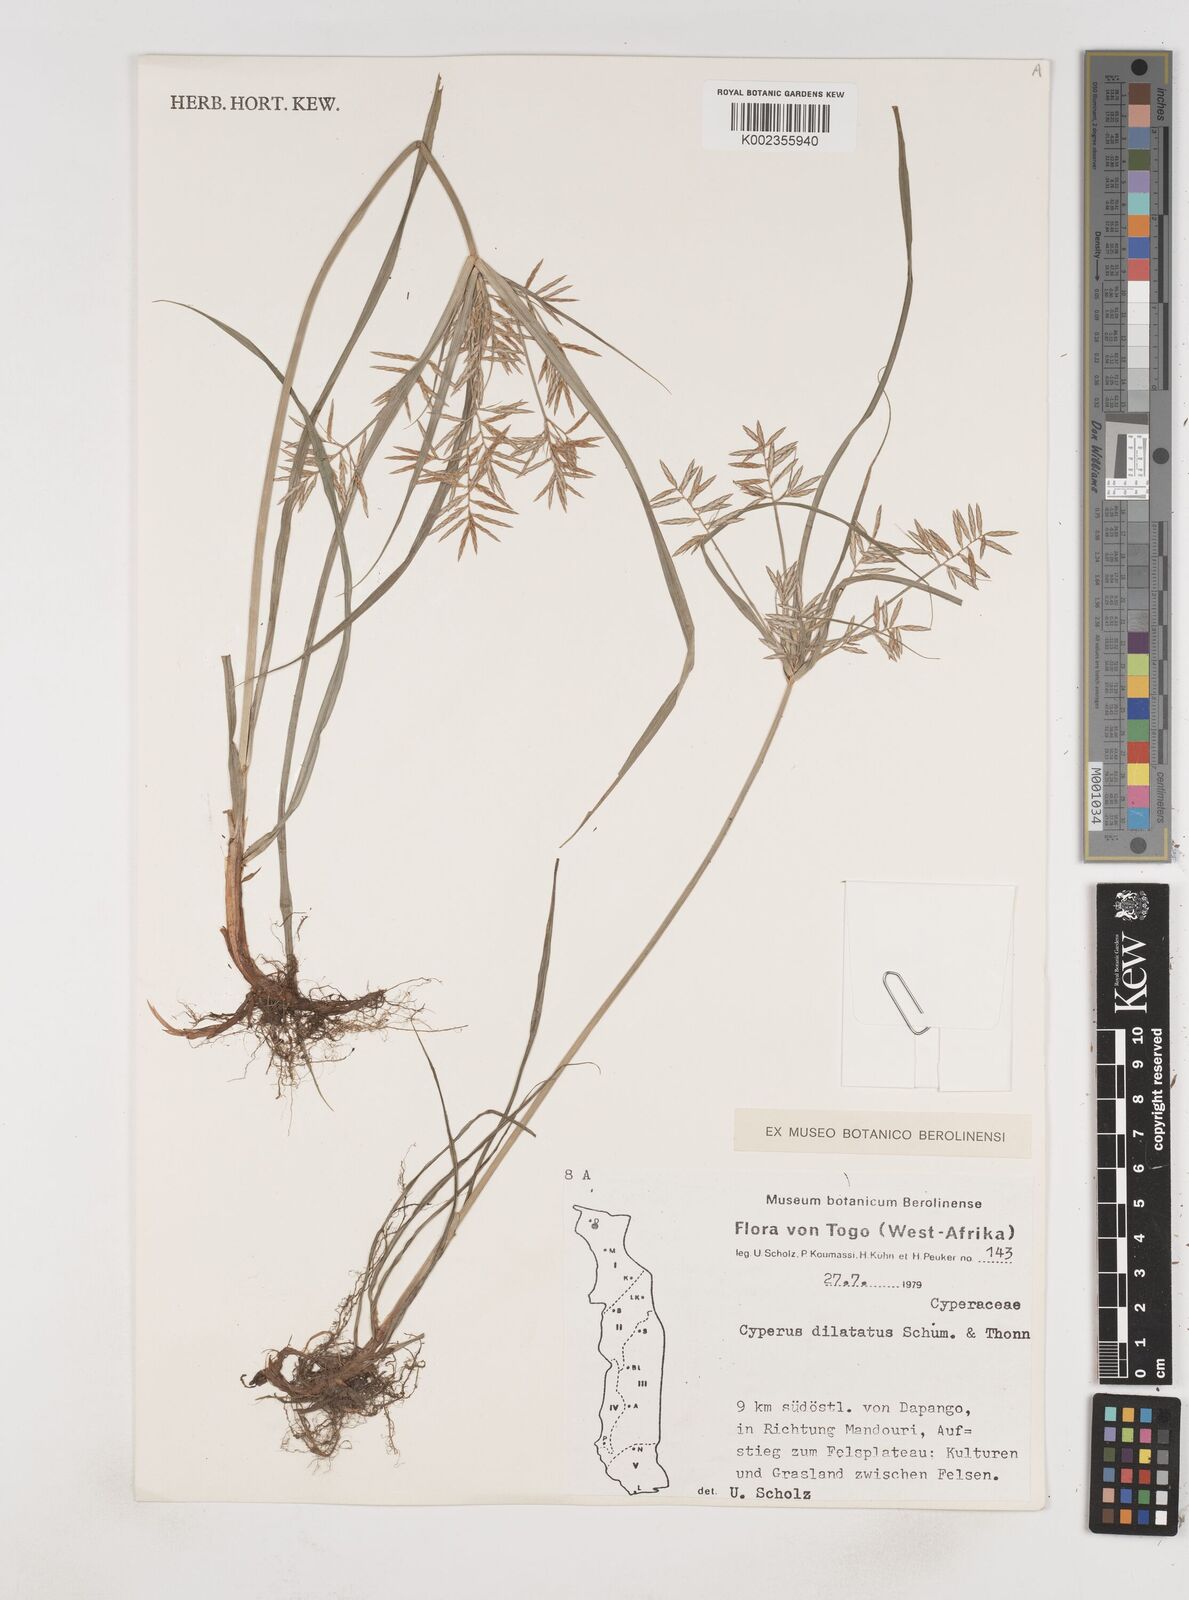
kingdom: Plantae
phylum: Tracheophyta
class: Liliopsida
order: Poales
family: Cyperaceae
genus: Cyperus
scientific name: Cyperus dilatatus
